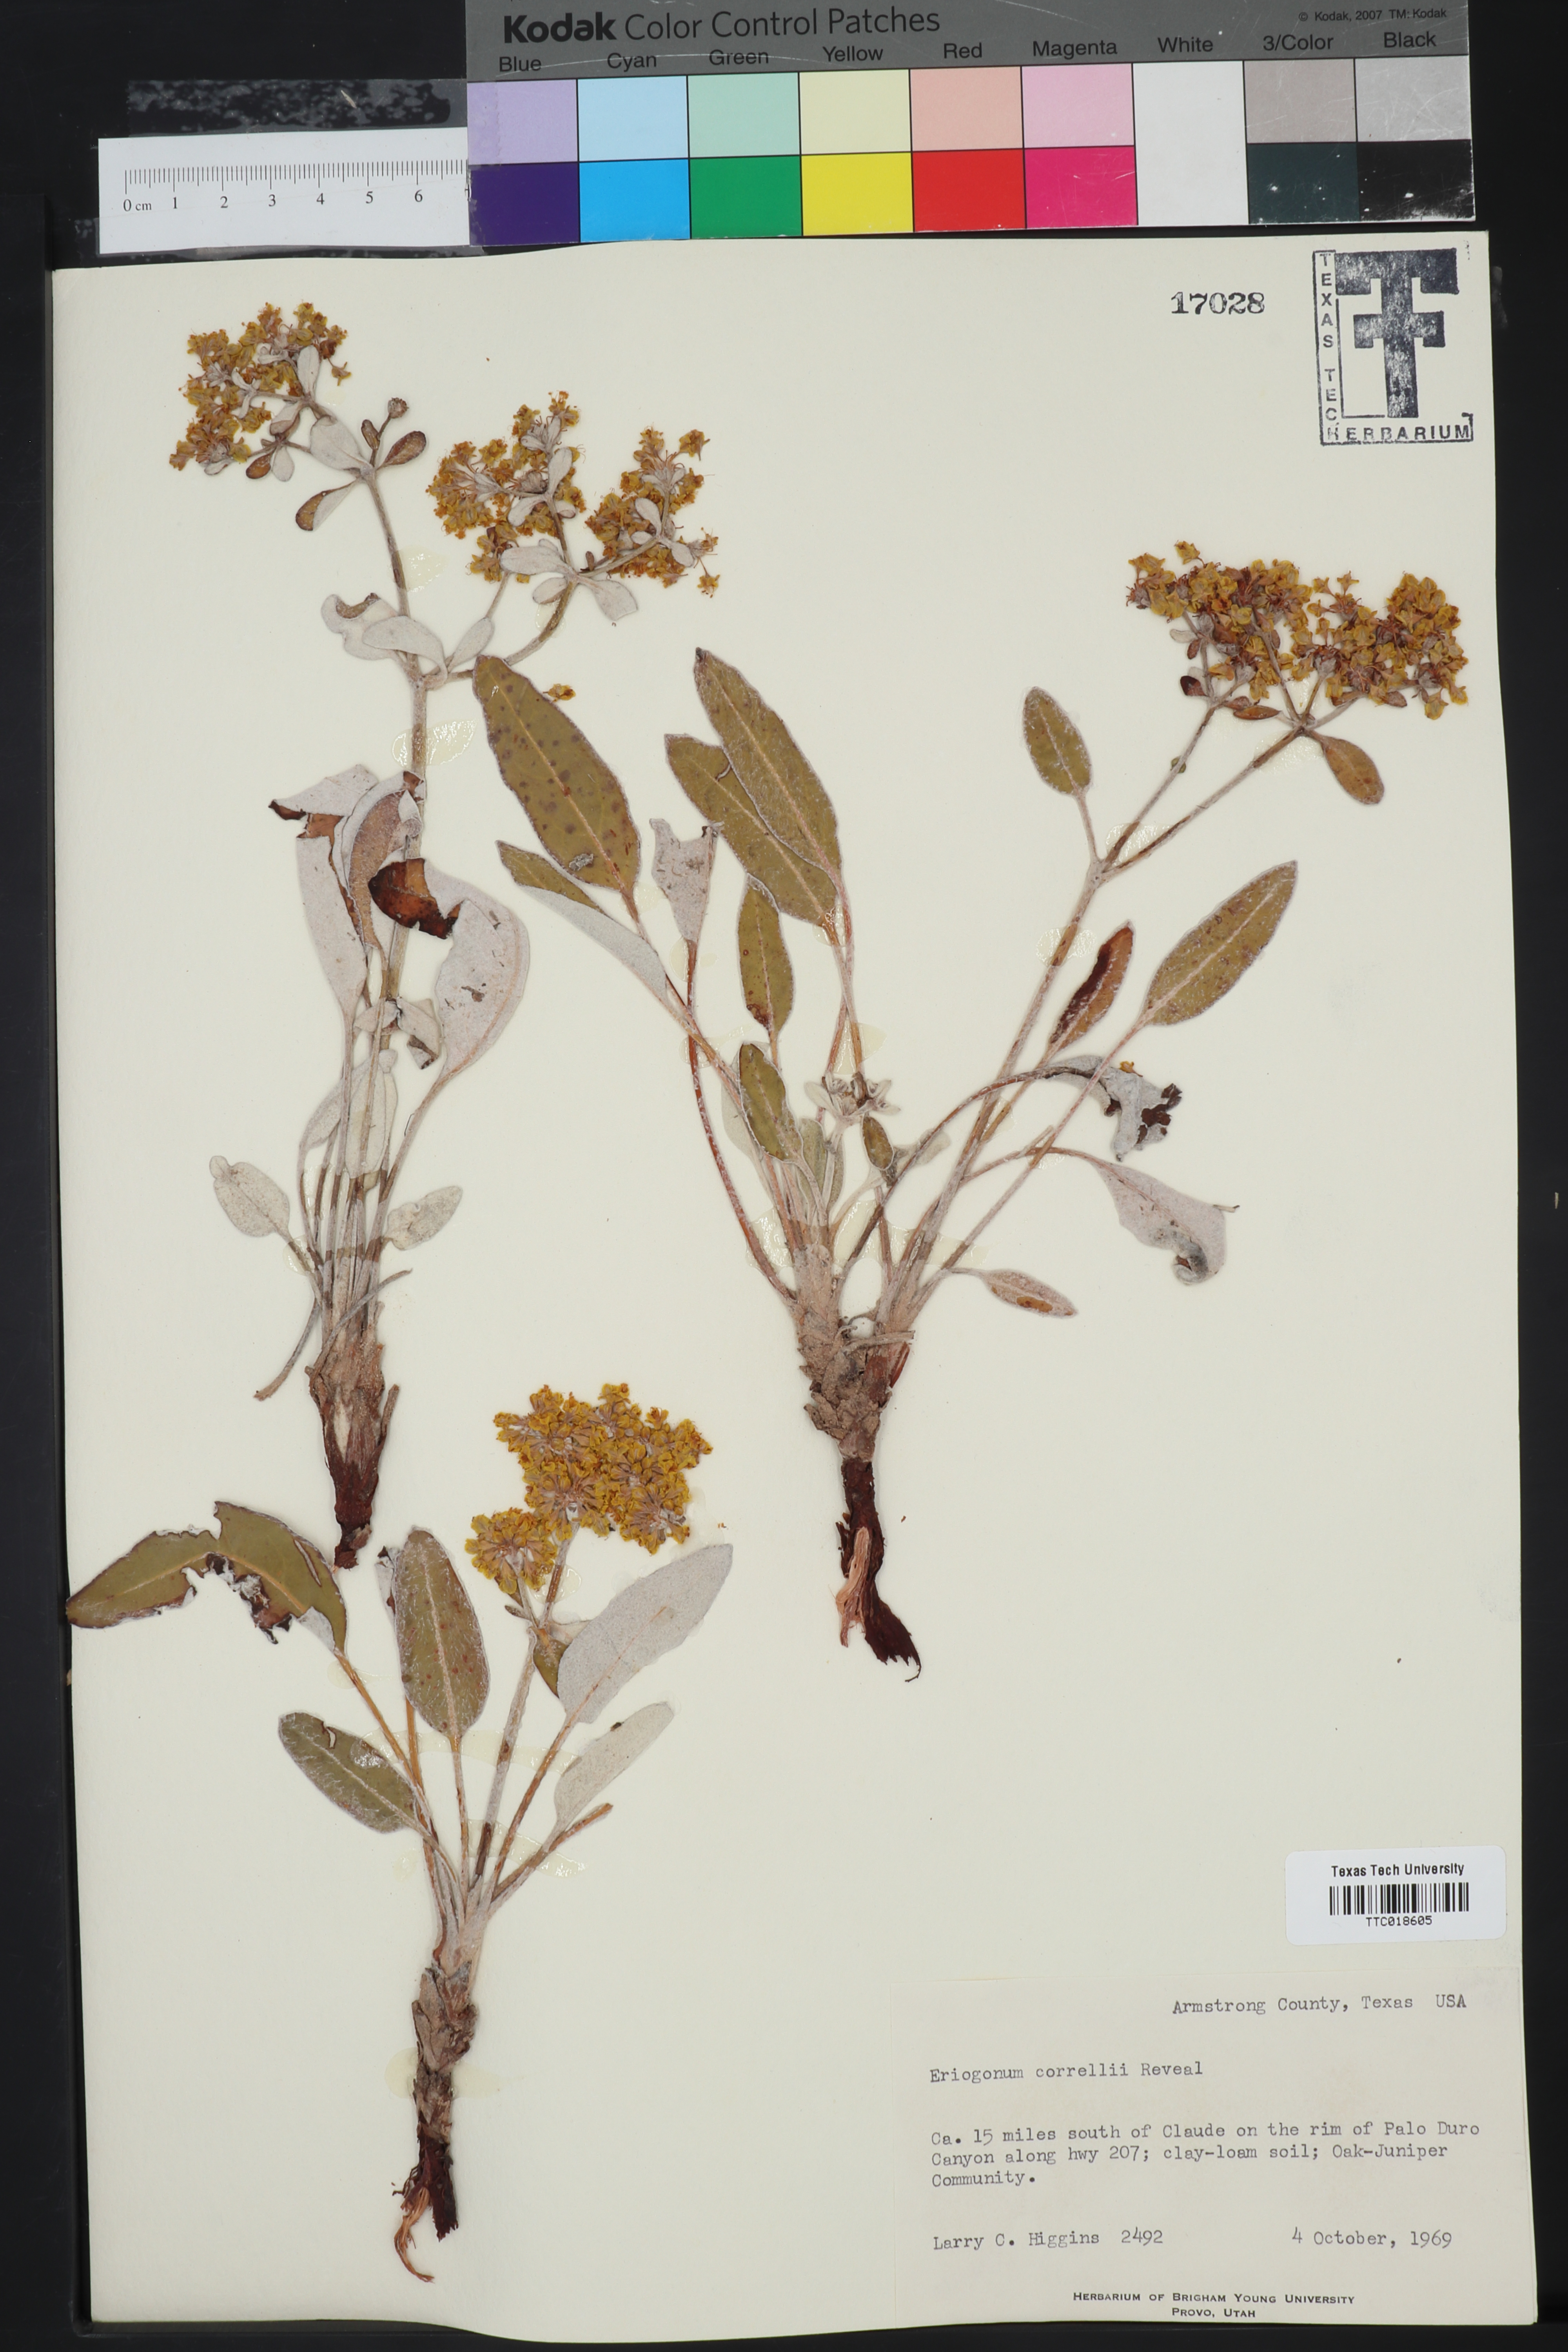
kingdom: Plantae
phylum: Tracheophyta
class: Magnoliopsida
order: Caryophyllales
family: Polygonaceae
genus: Eriogonum
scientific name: Eriogonum correllii
